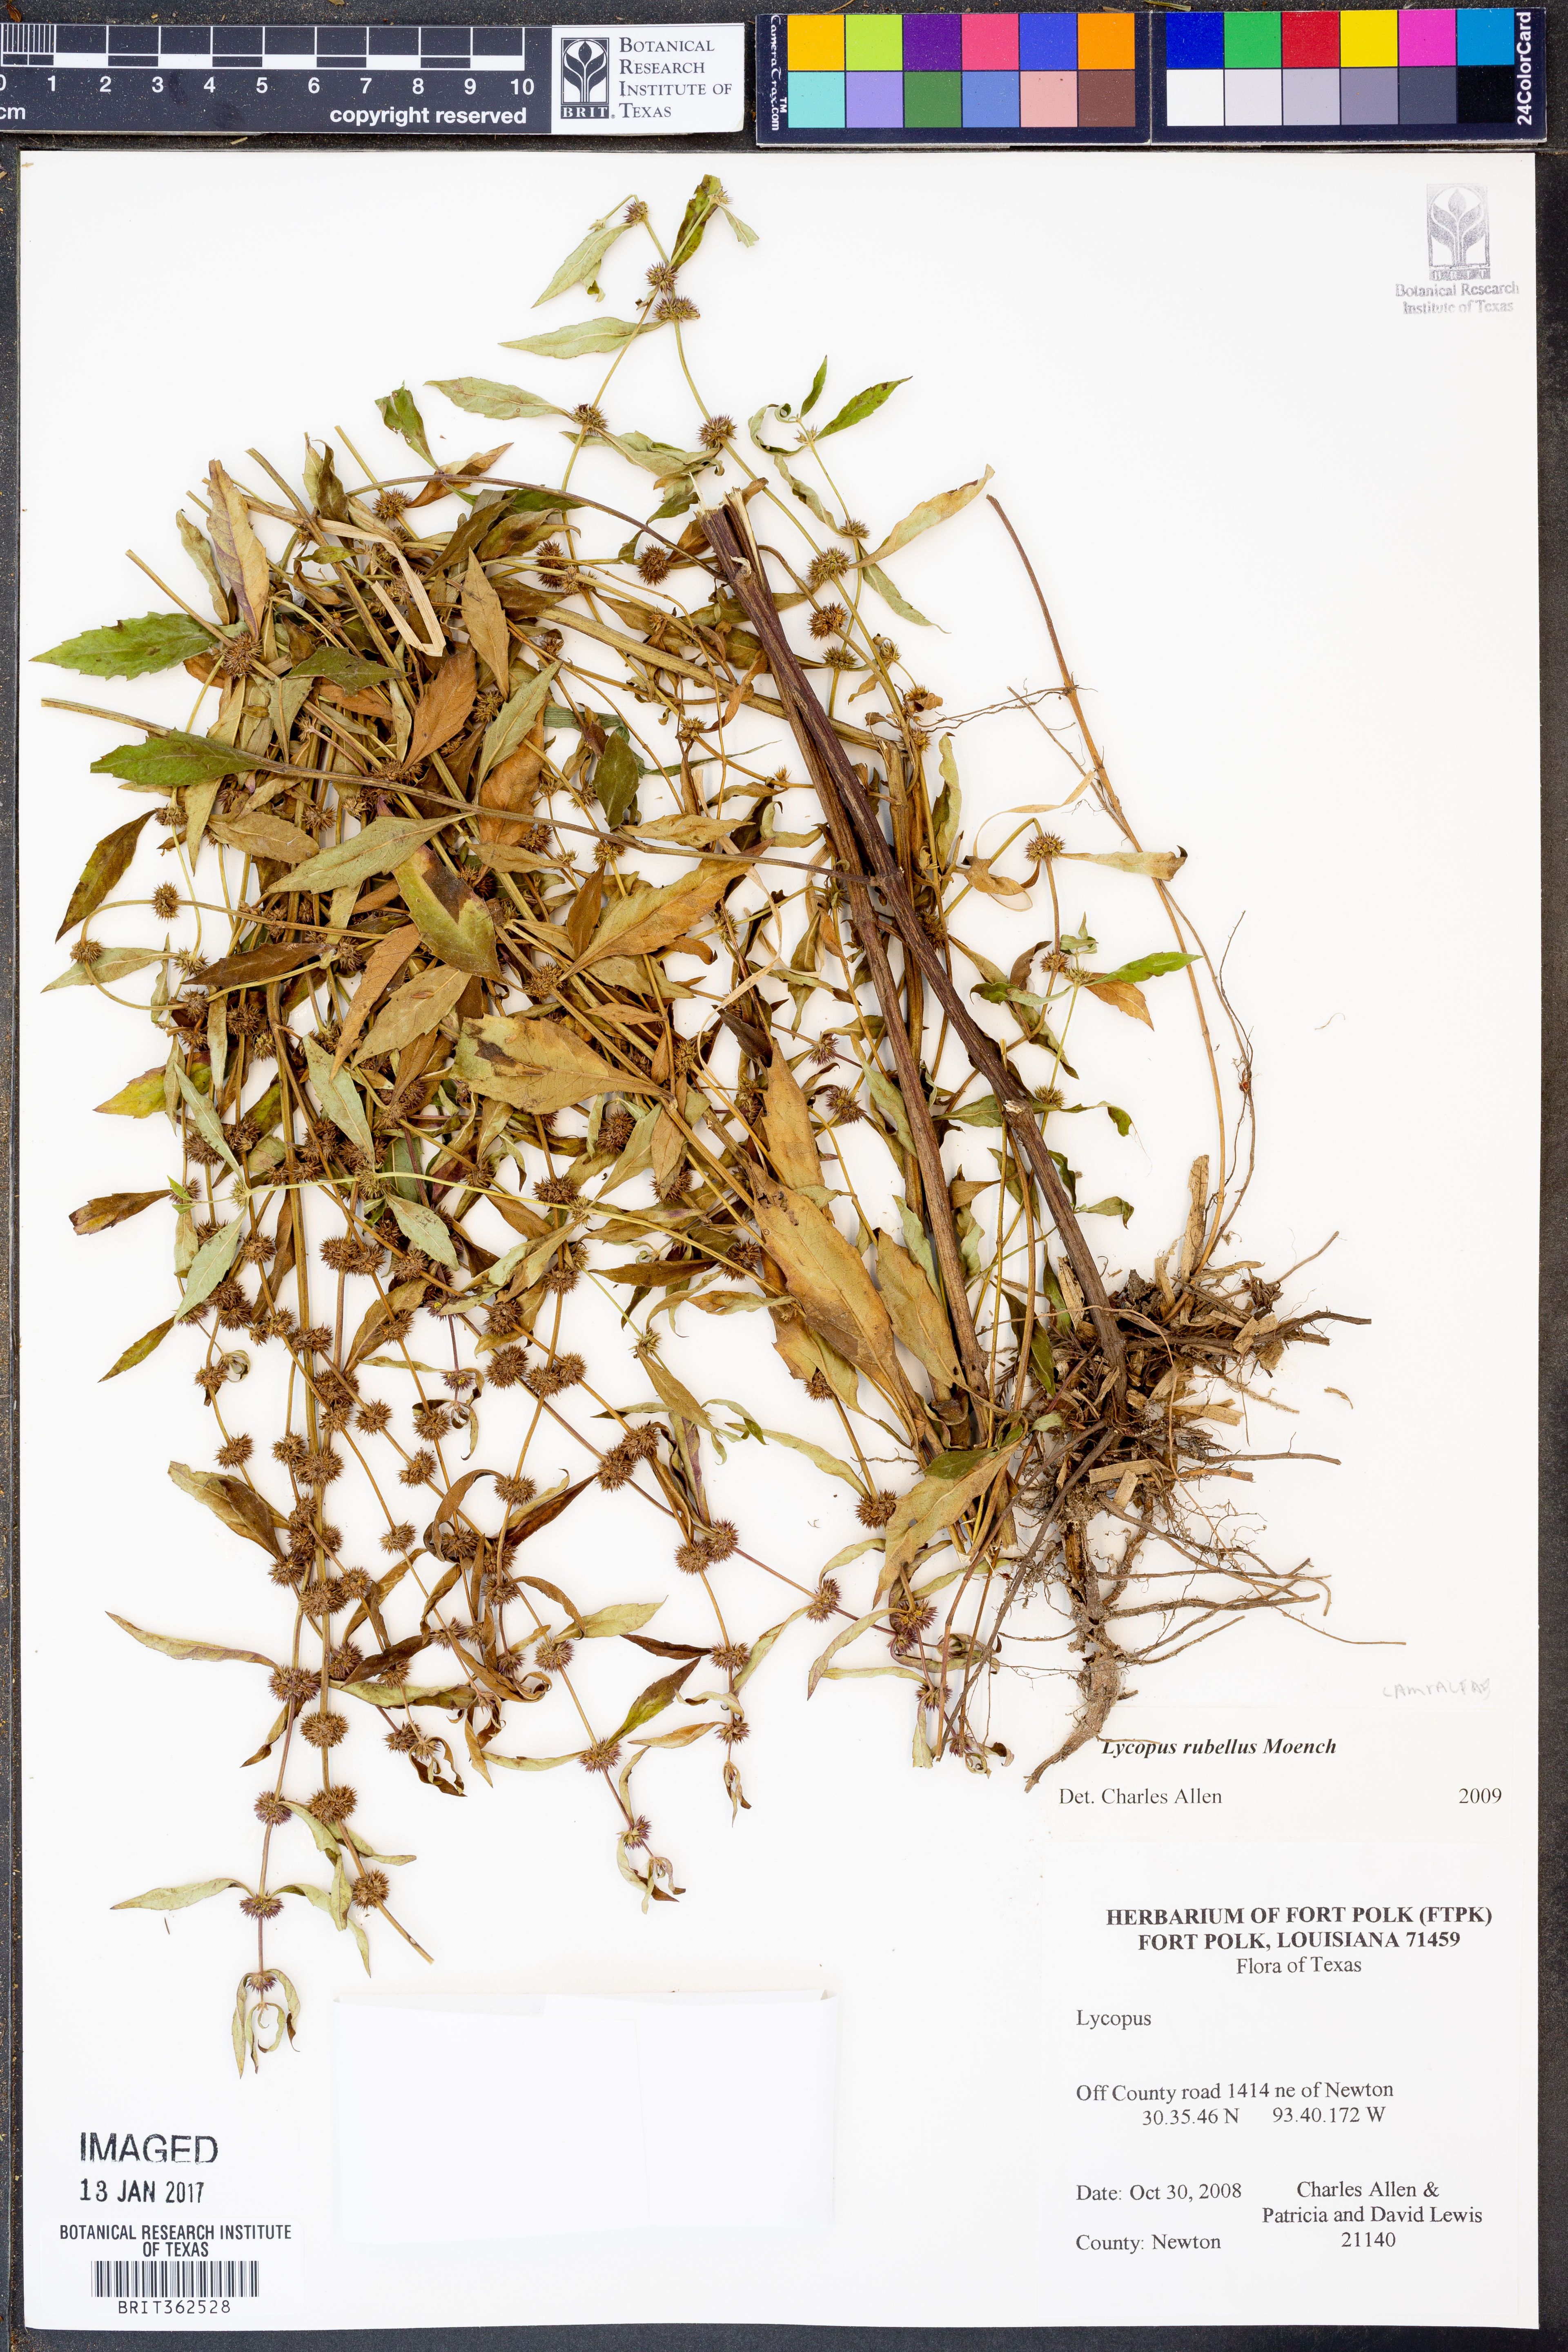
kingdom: Plantae
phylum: Tracheophyta
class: Magnoliopsida
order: Lamiales
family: Lamiaceae
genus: Lycopus
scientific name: Lycopus rubellus
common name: Stalked bugleweed
